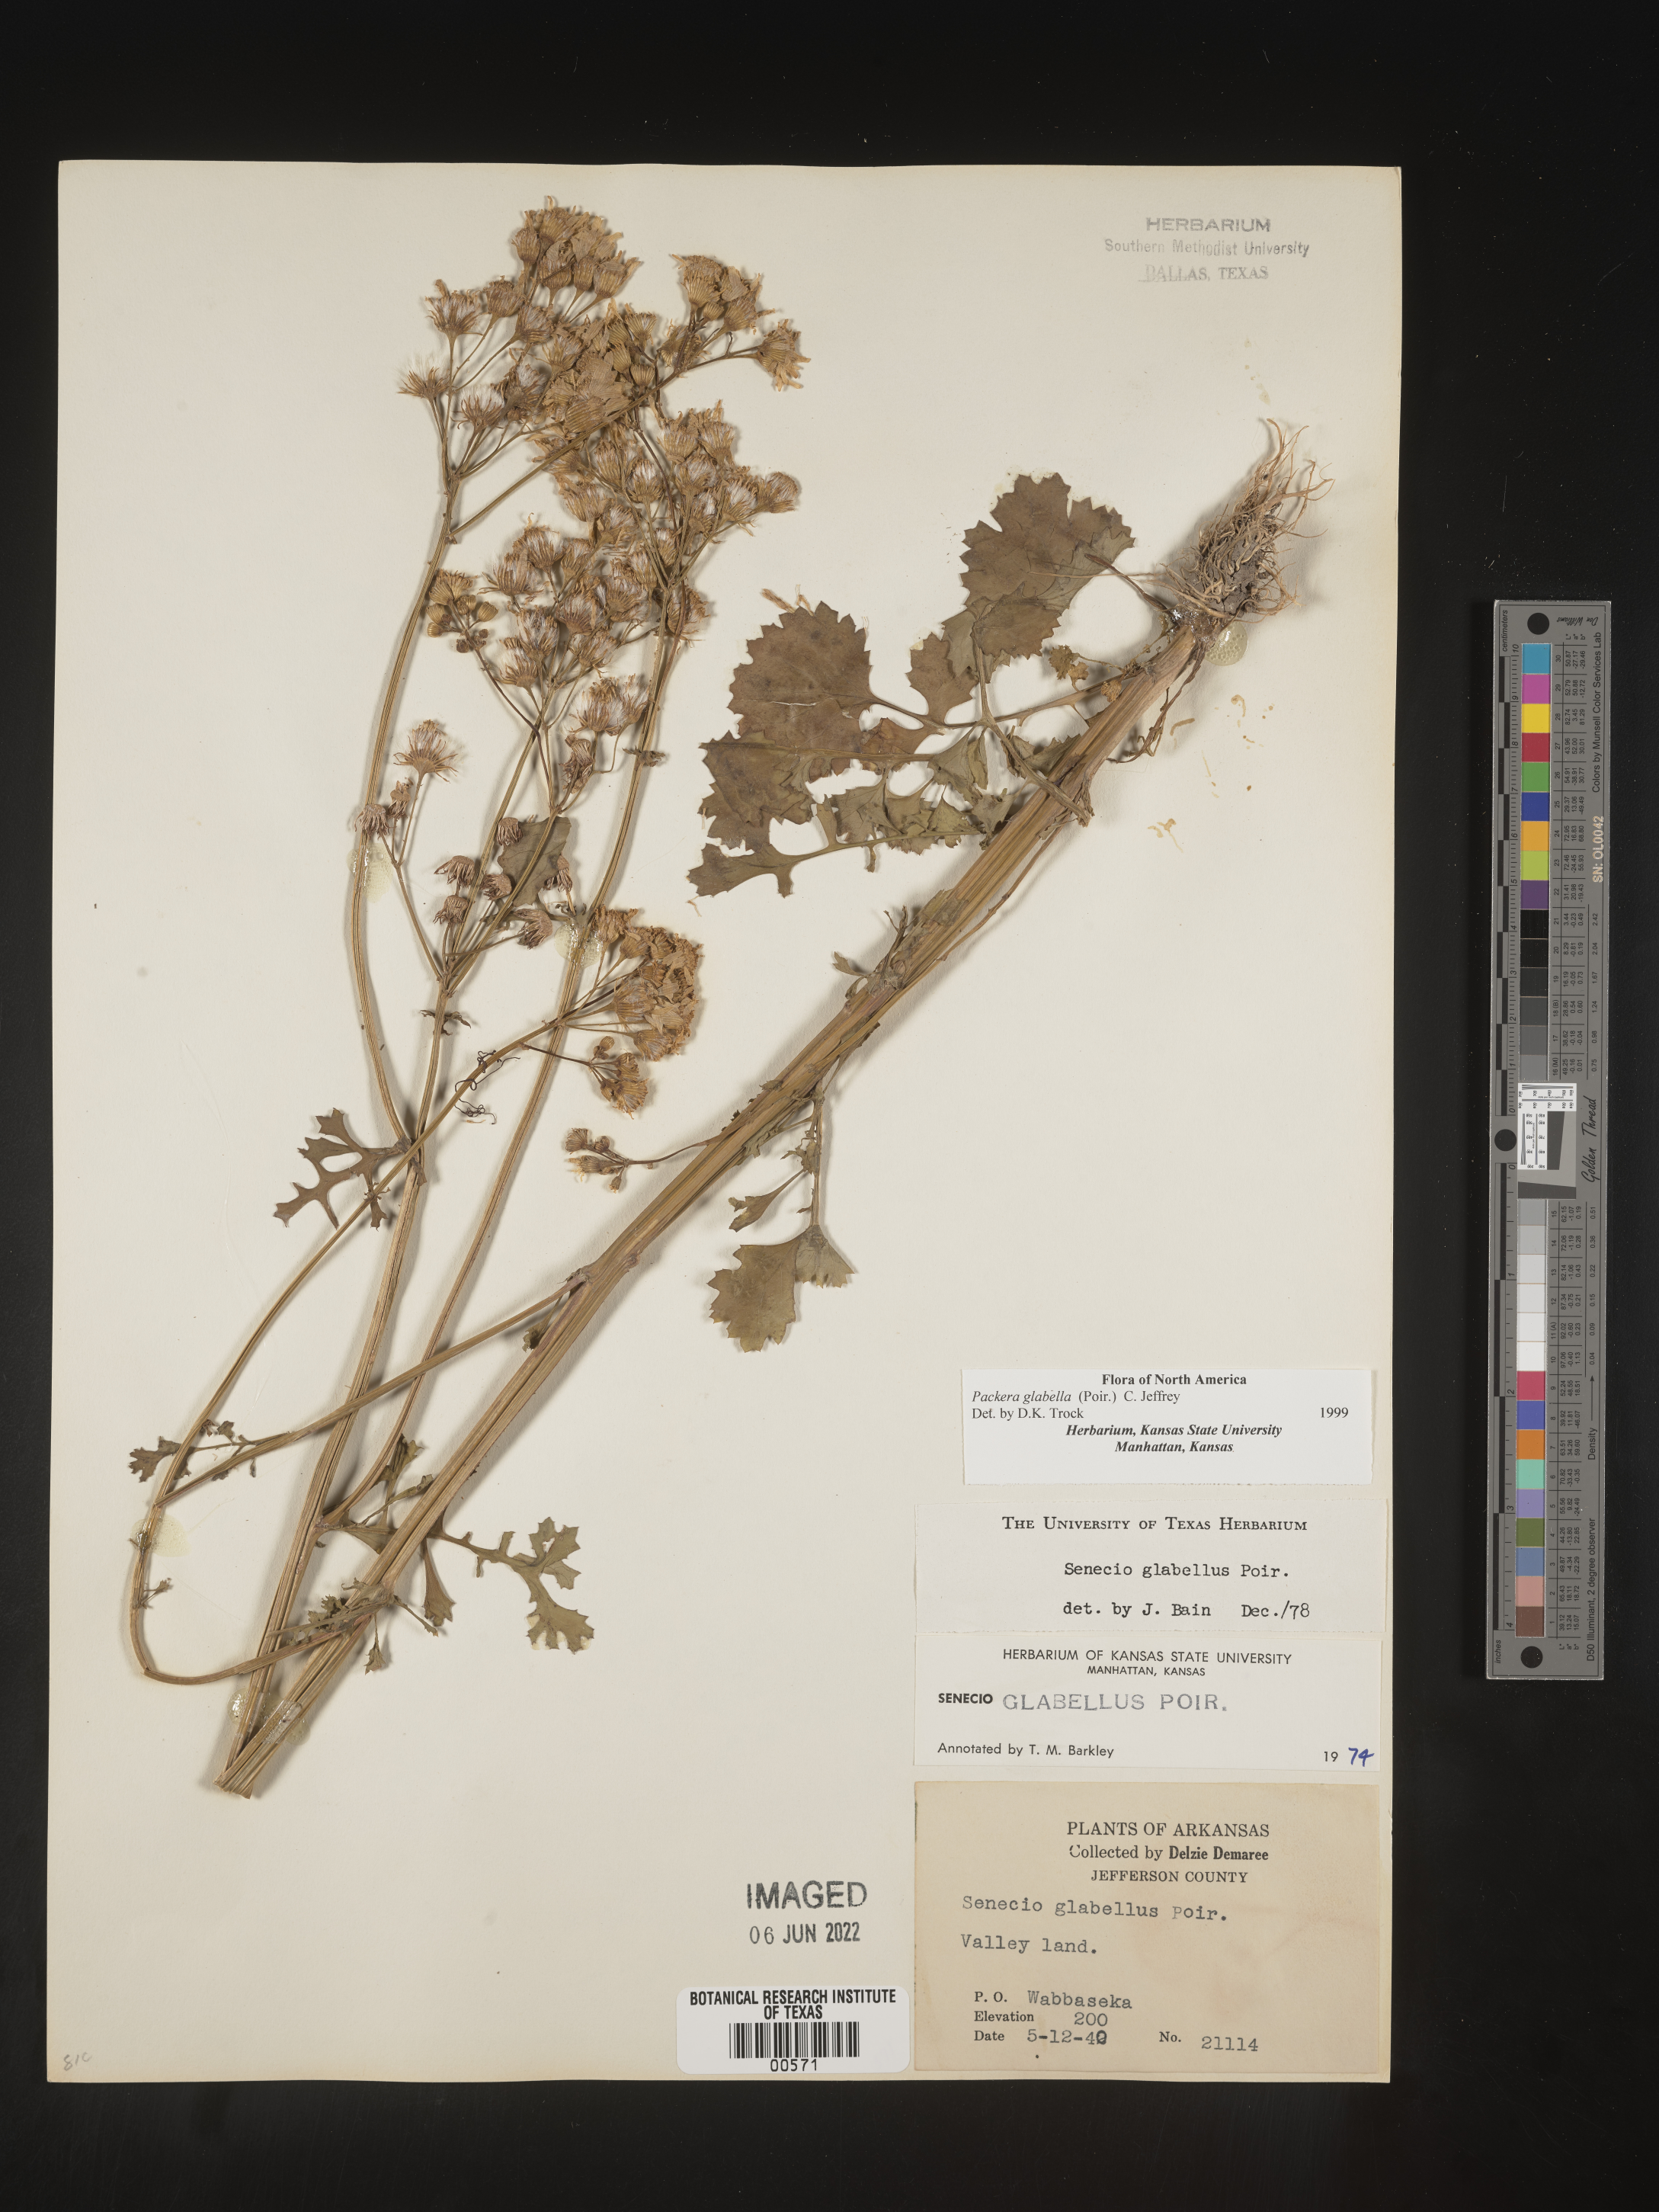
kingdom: Plantae
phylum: Tracheophyta
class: Magnoliopsida
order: Asterales
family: Asteraceae
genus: Packera
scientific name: Packera glabella
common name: Butterweed
